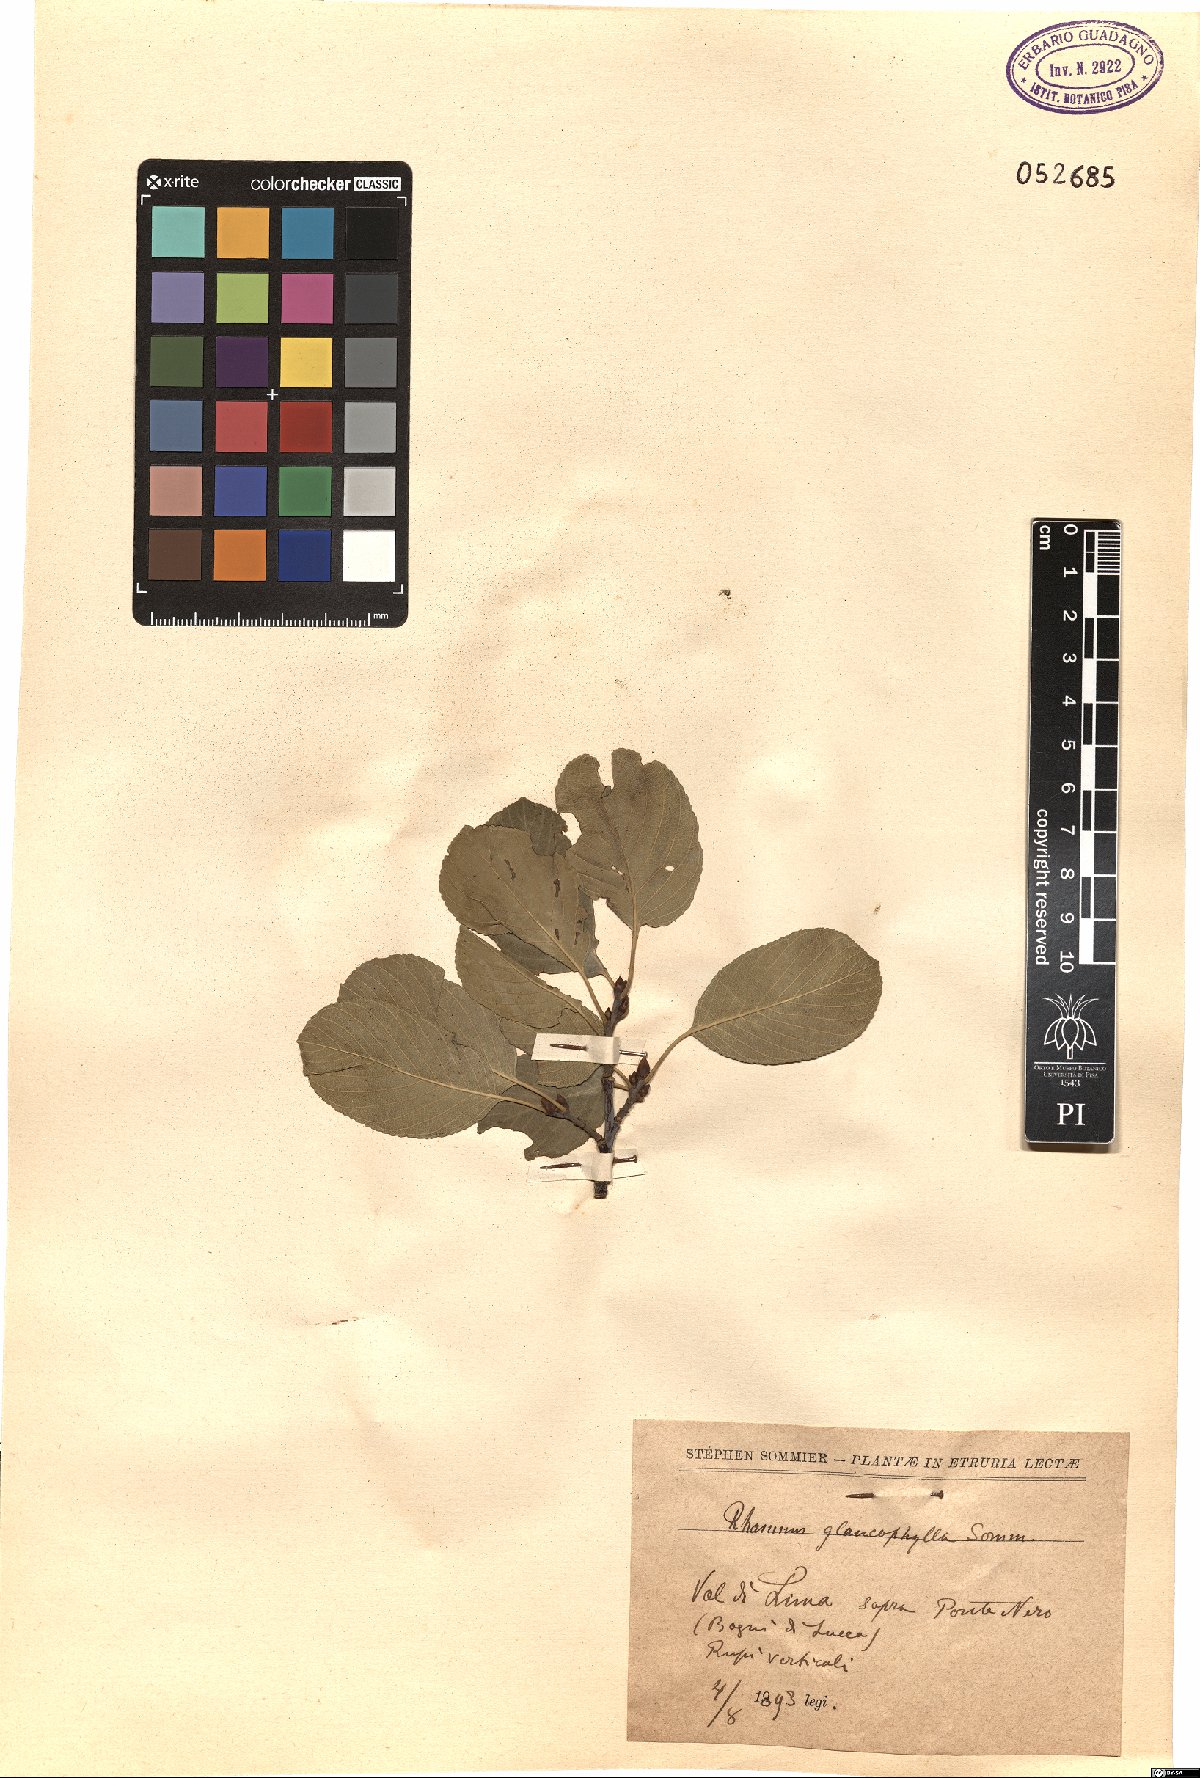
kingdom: Plantae
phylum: Tracheophyta
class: Magnoliopsida
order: Rosales
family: Rhamnaceae
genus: Atadinus
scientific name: Atadinus glaucophyllus
